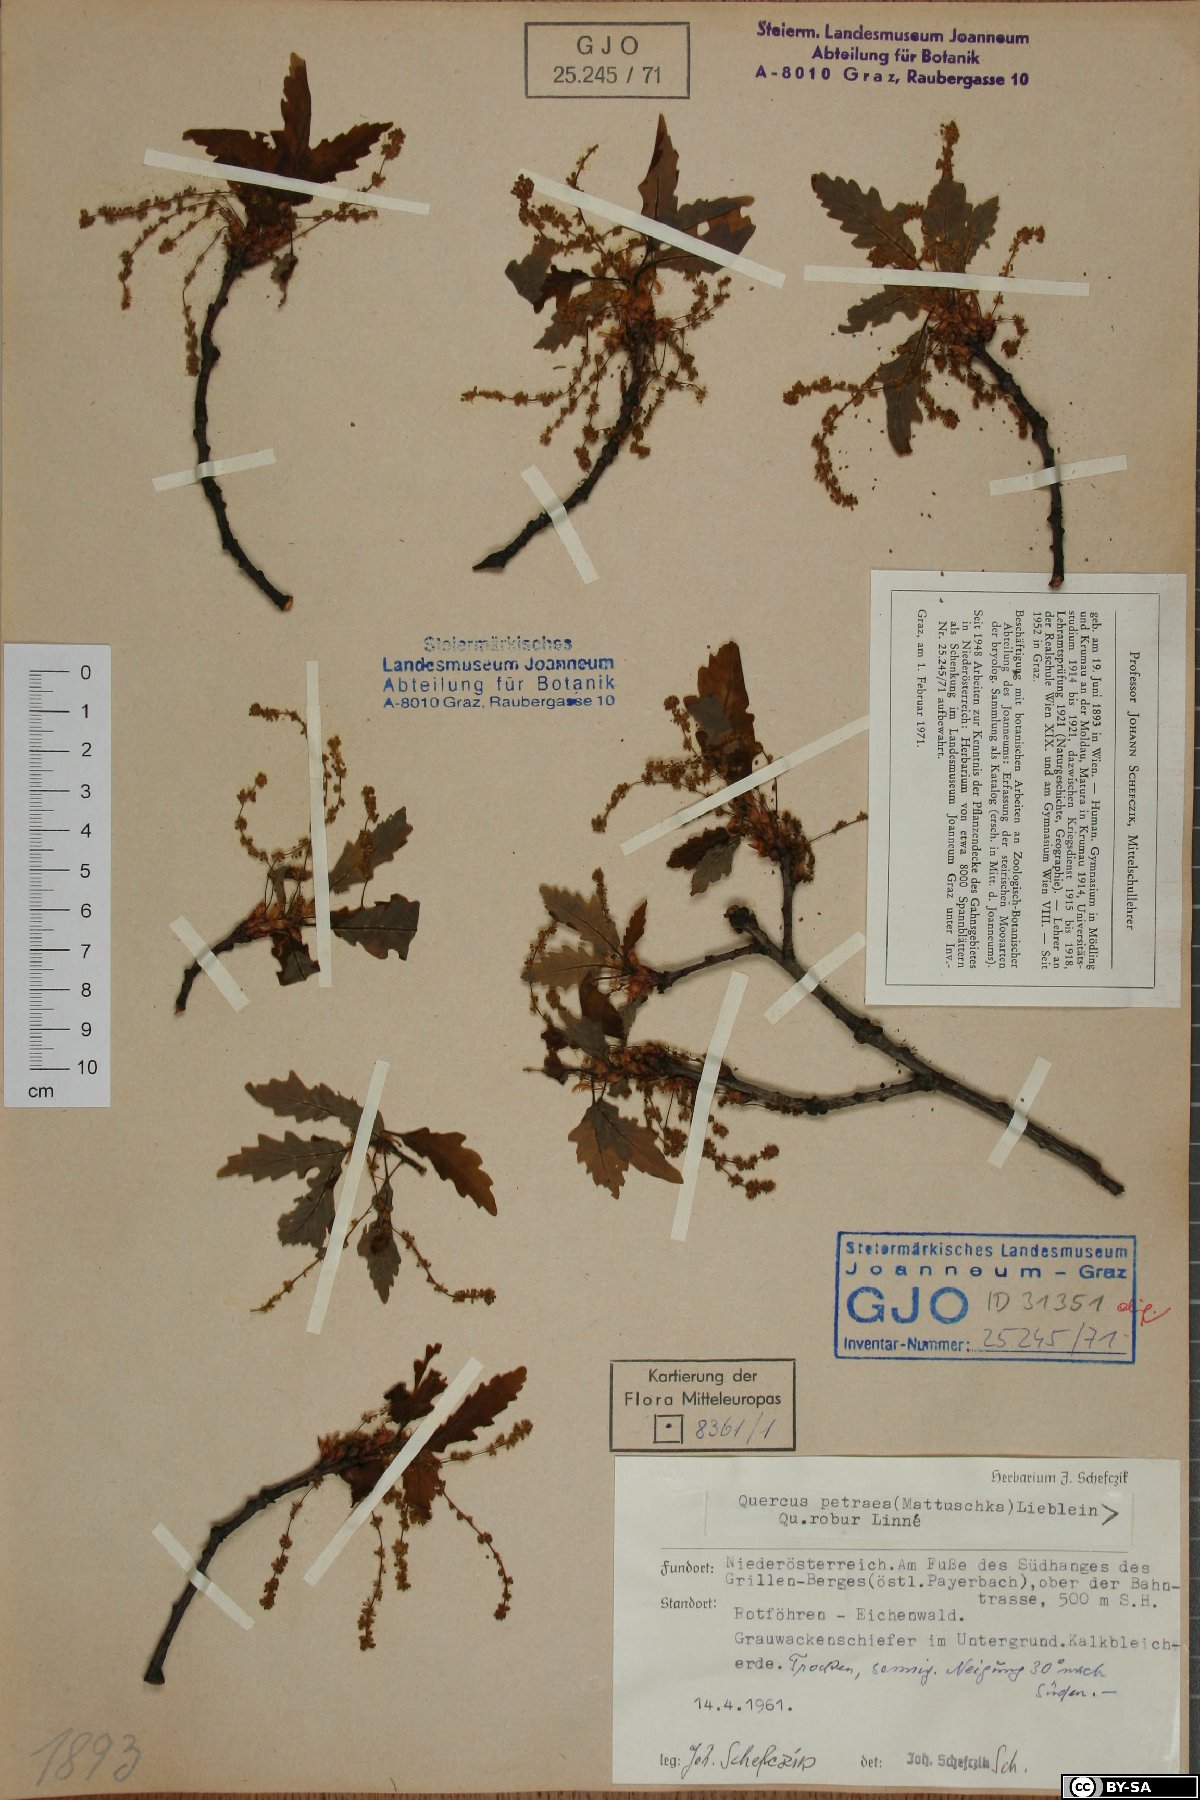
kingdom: Plantae
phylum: Tracheophyta
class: Magnoliopsida
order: Fagales
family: Fagaceae
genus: Quercus
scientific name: Quercus petraea
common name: Sessile oak
